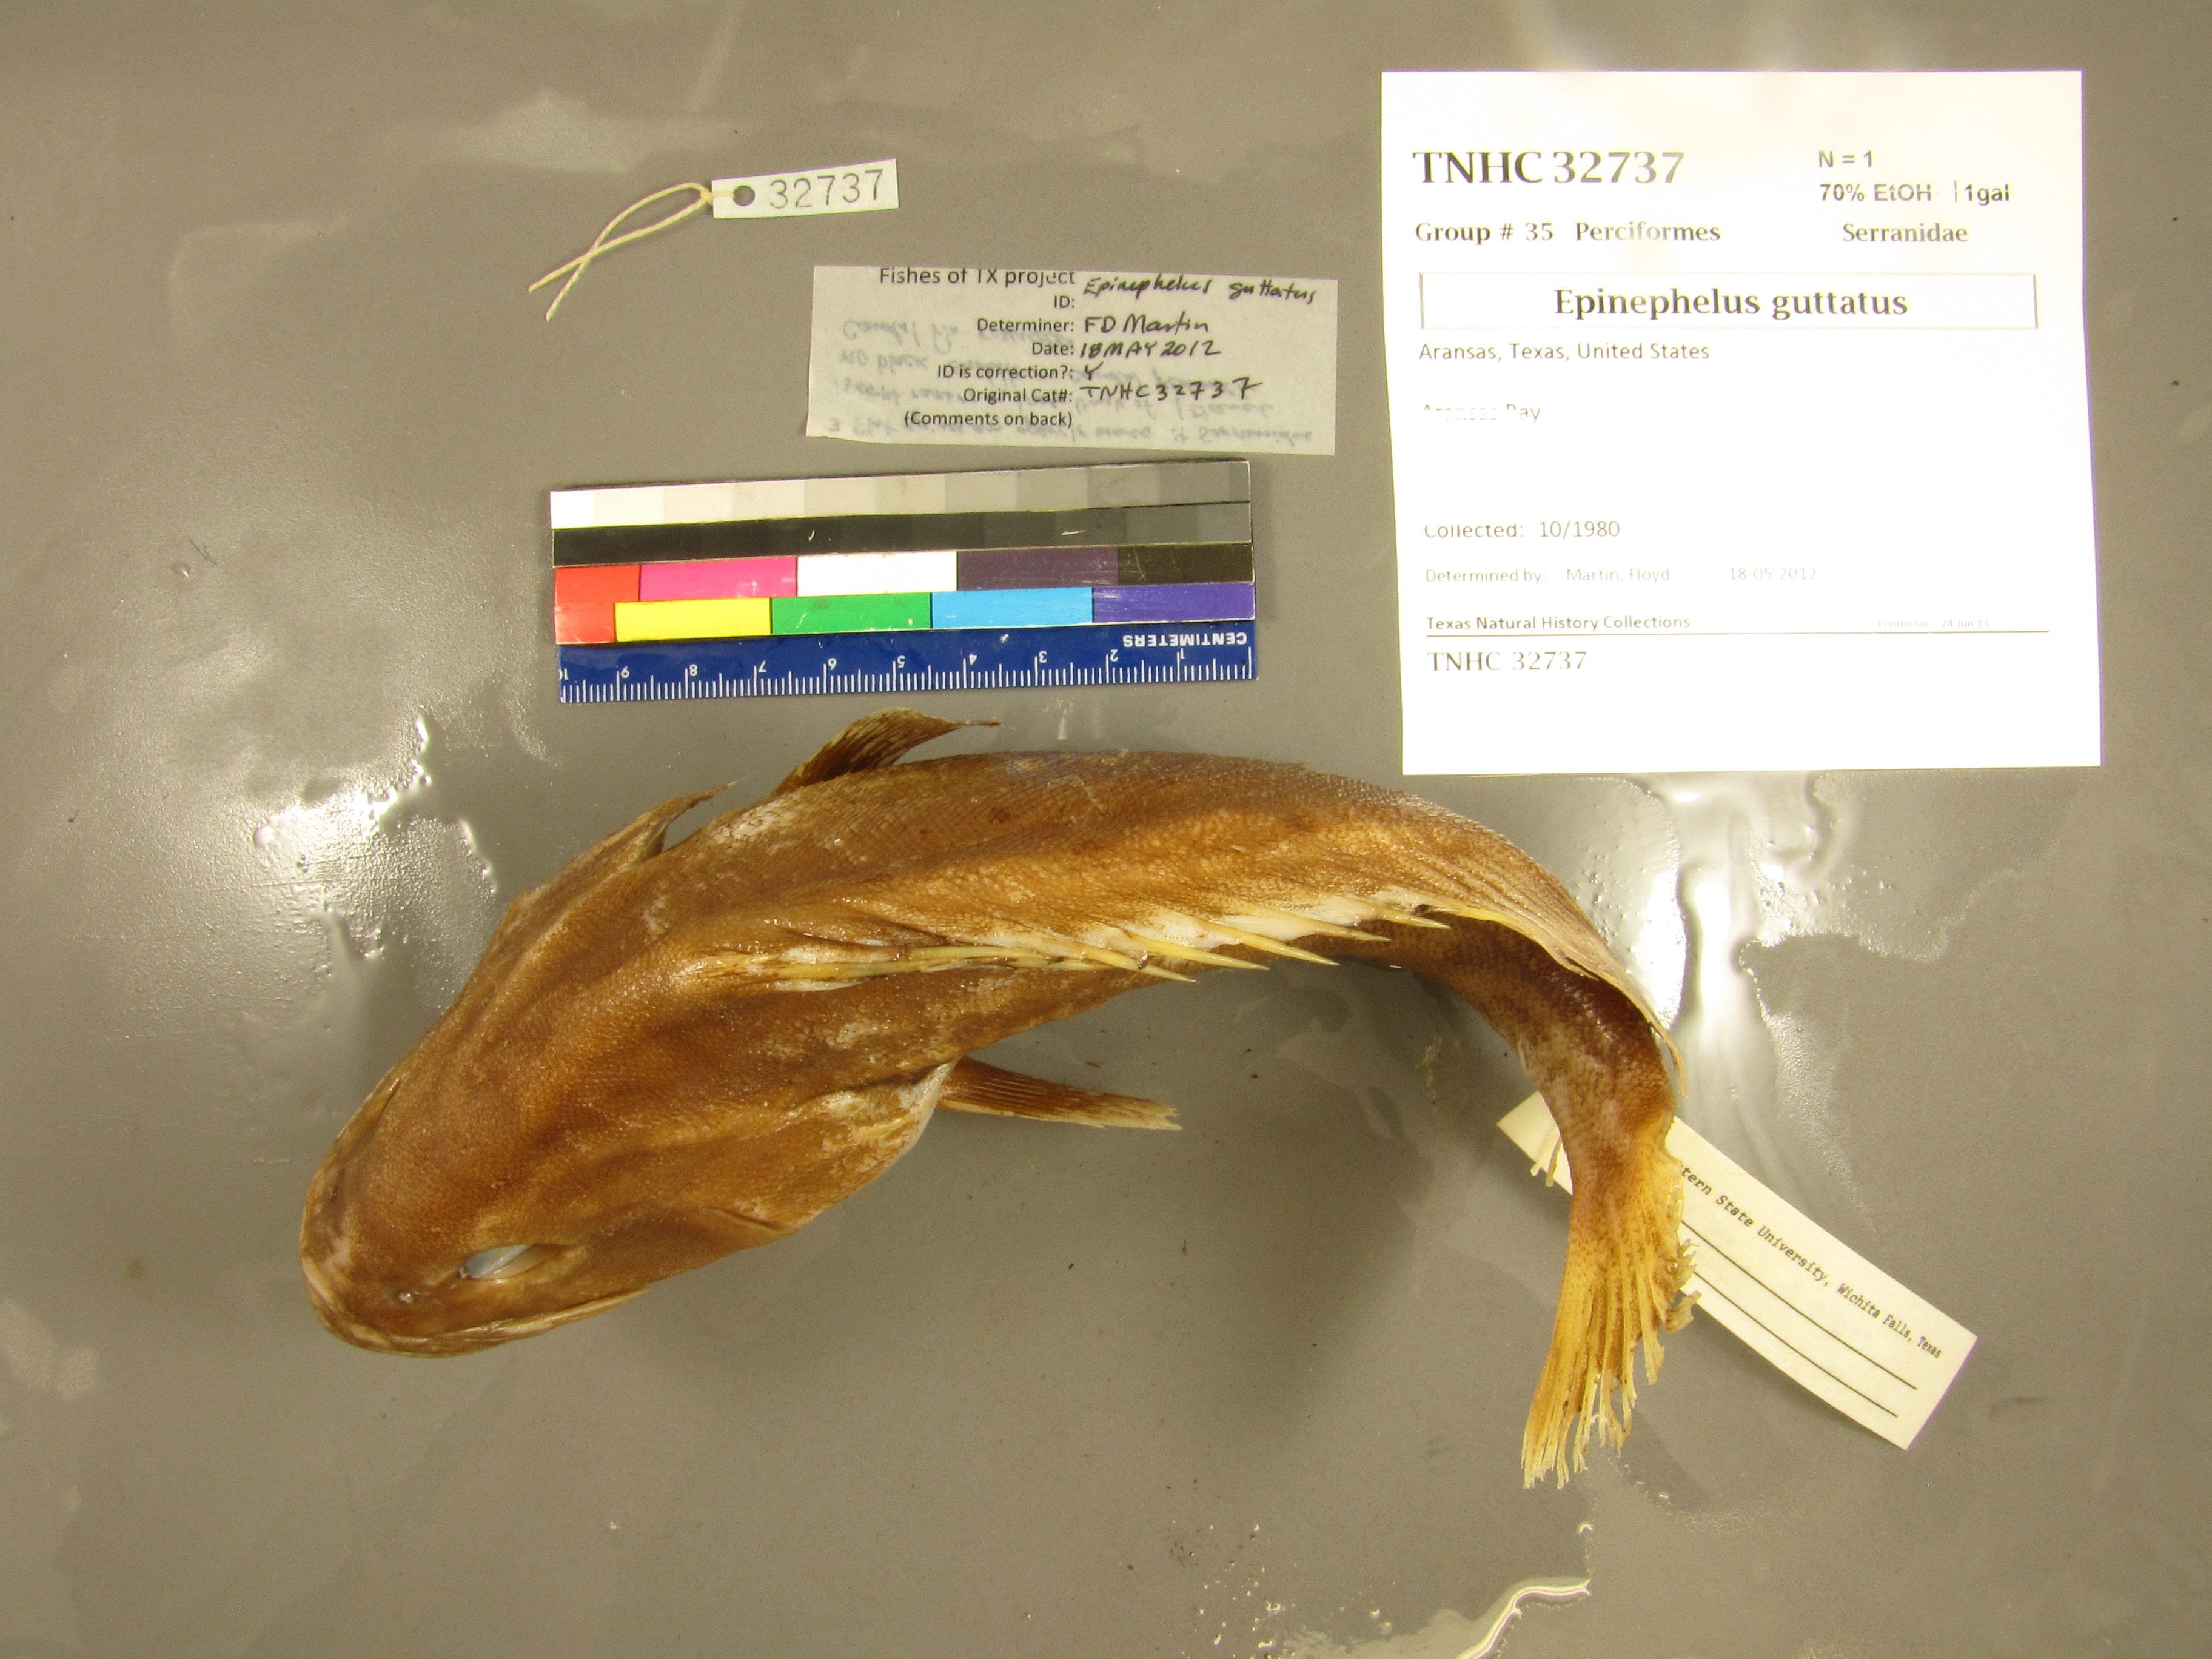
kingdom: Animalia
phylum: Chordata
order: Perciformes
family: Serranidae
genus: Epinephelus
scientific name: Epinephelus guttatus
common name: Red hind
